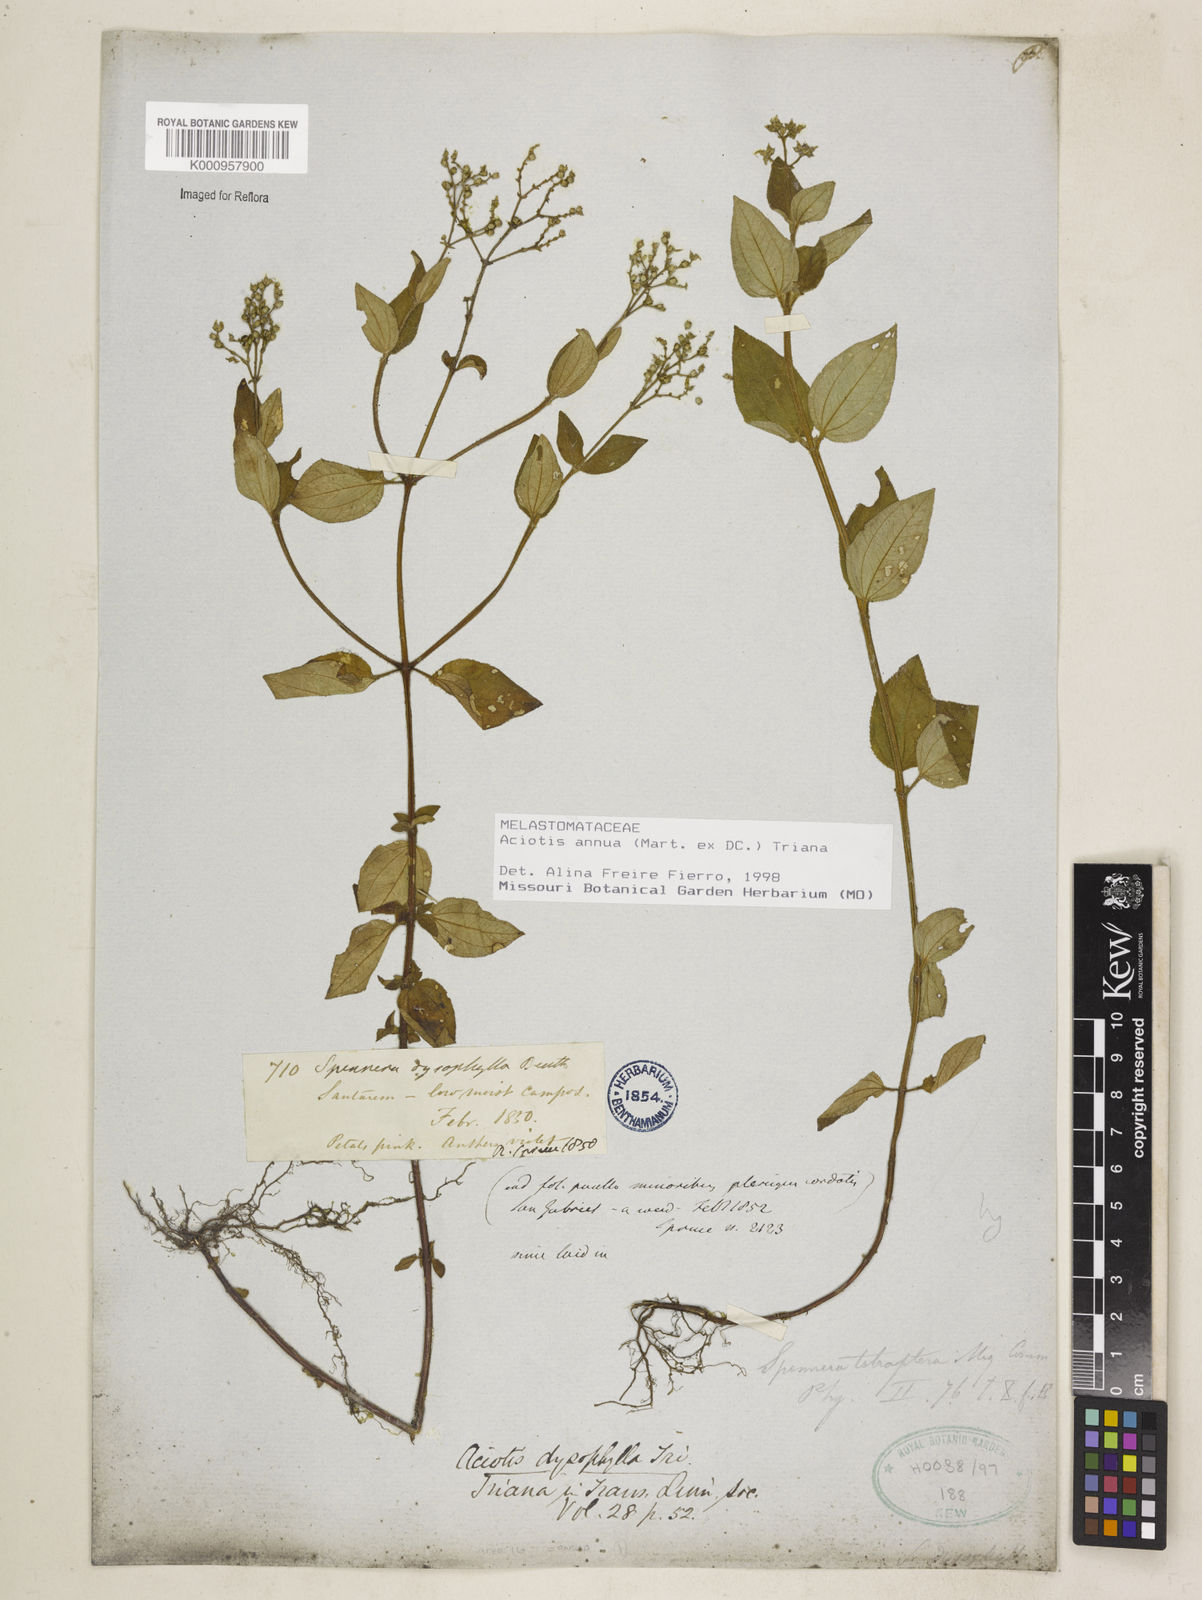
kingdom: Plantae
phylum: Tracheophyta
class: Magnoliopsida
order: Myrtales
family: Melastomataceae
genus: Aciotis
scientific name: Aciotis annua
